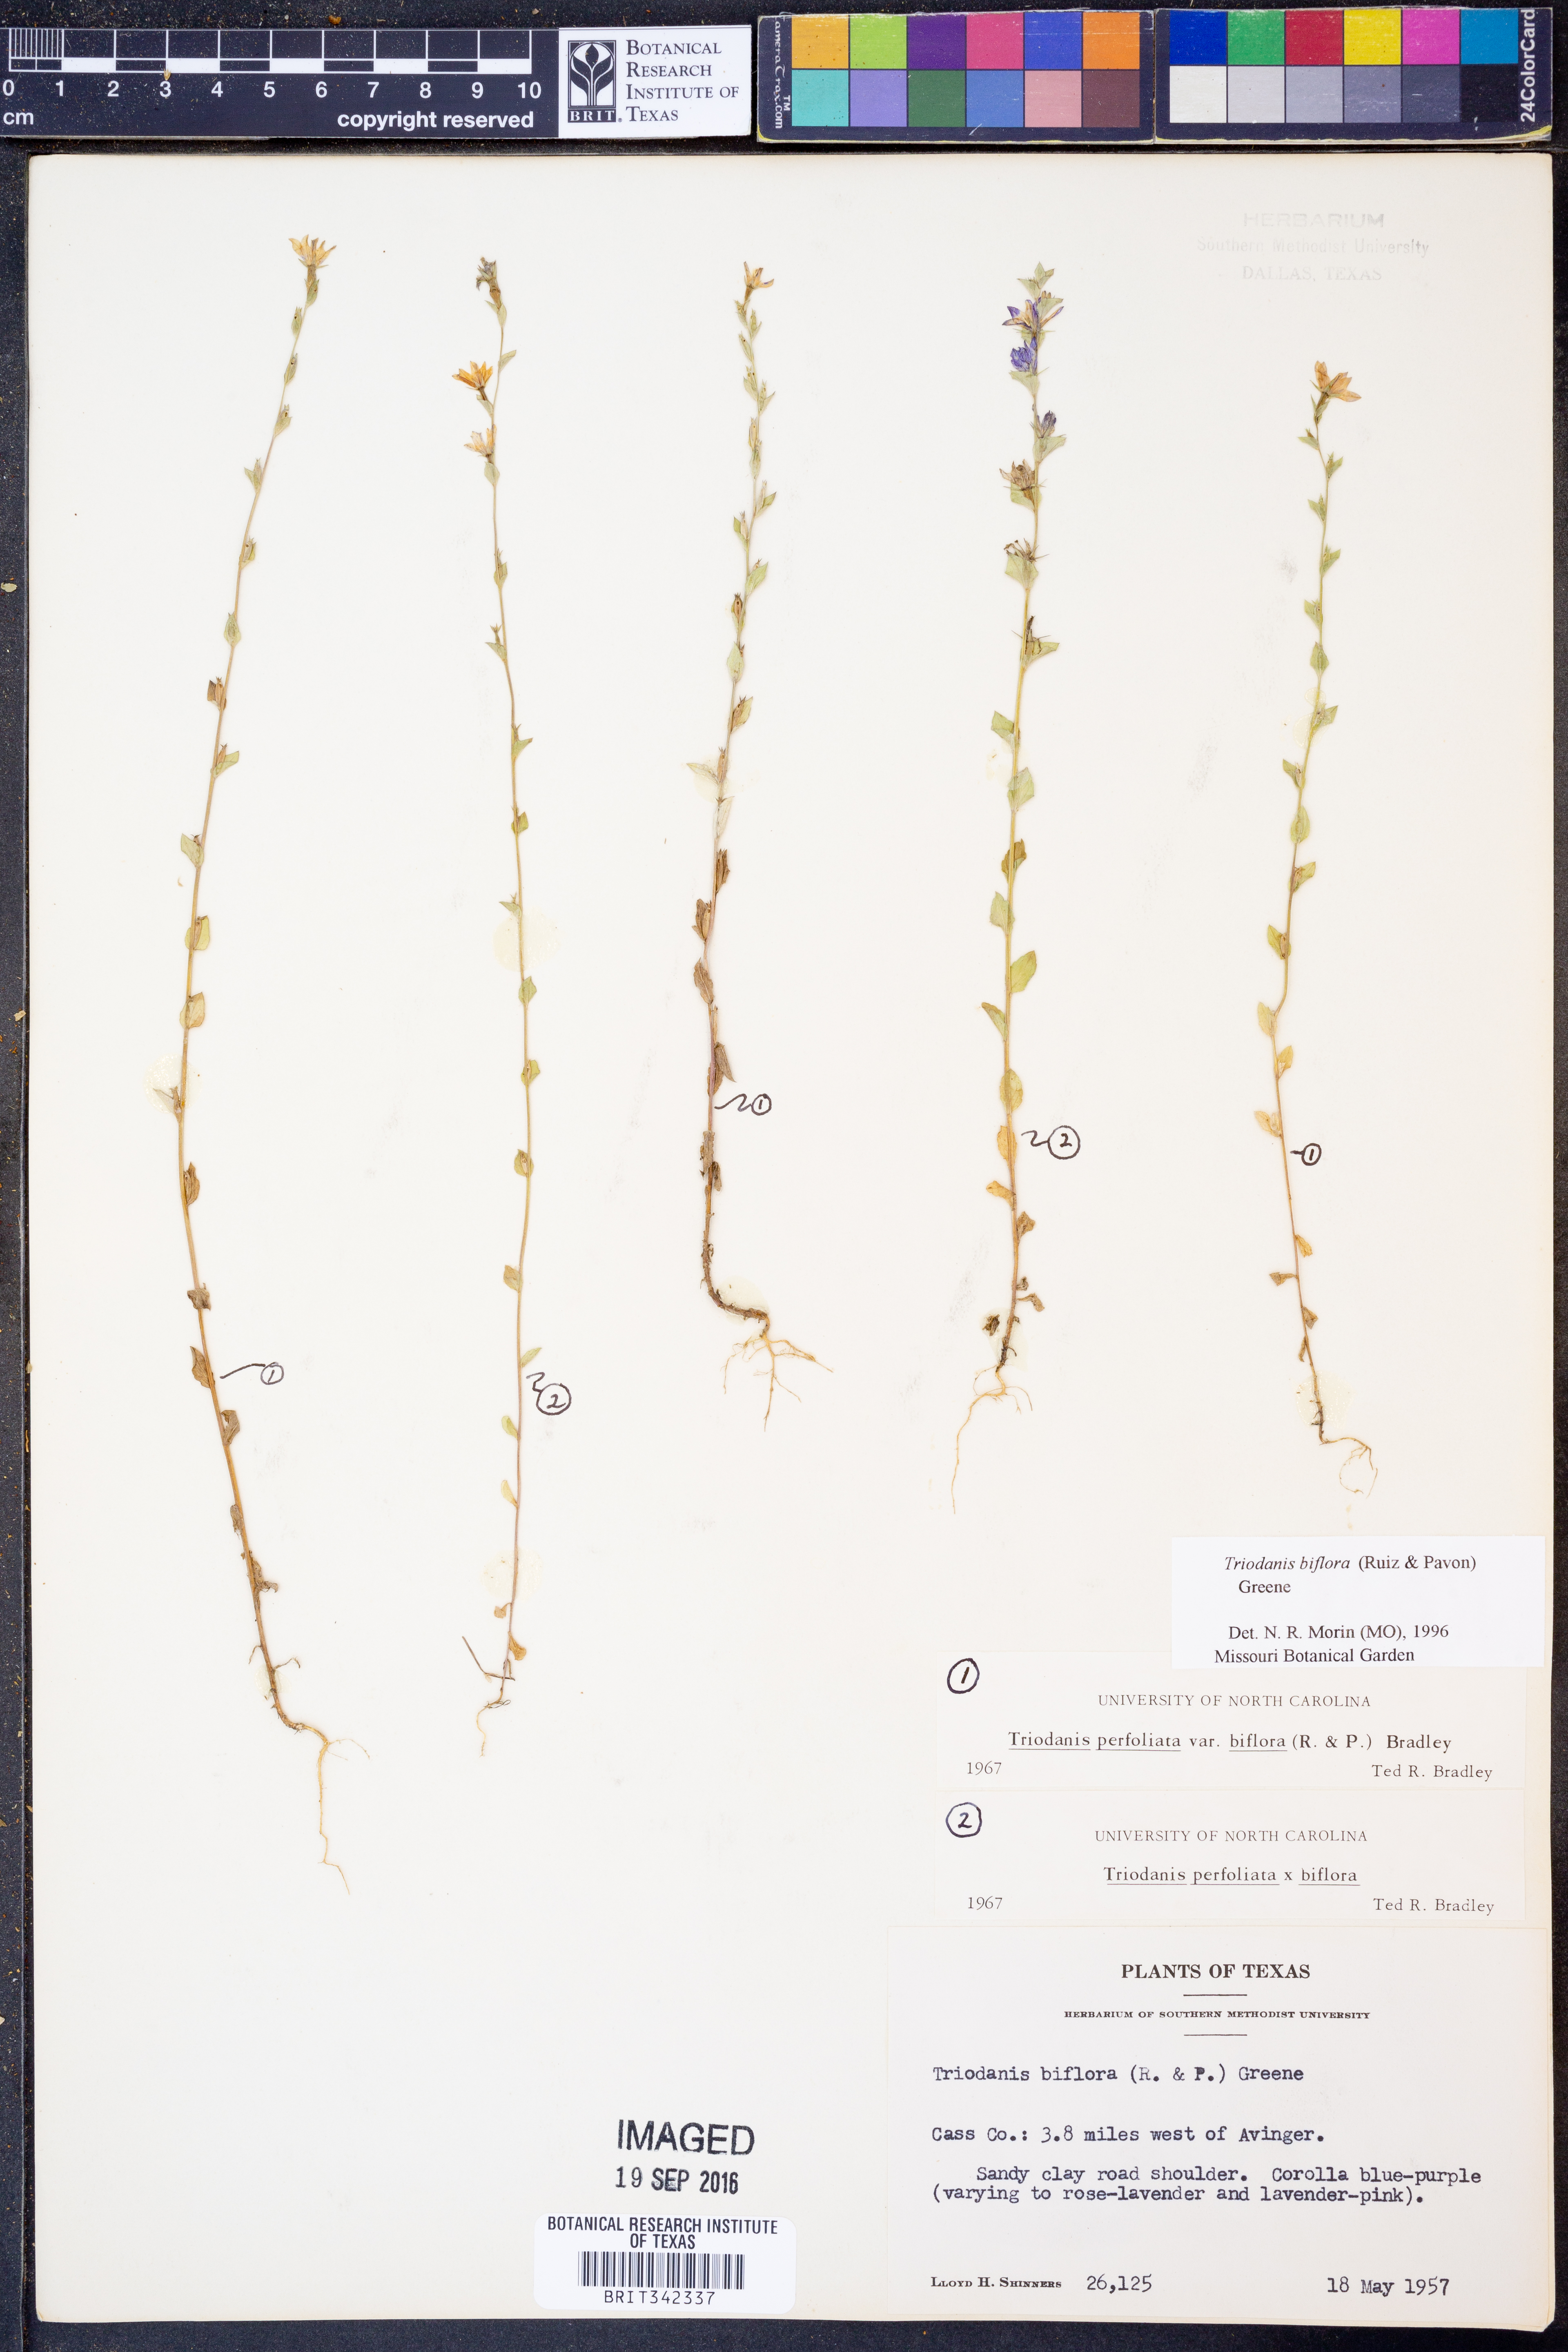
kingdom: Plantae
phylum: Tracheophyta
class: Magnoliopsida
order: Asterales
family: Campanulaceae
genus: Triodanis
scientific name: Triodanis perfoliata
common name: Clasping venus' looking-glass
